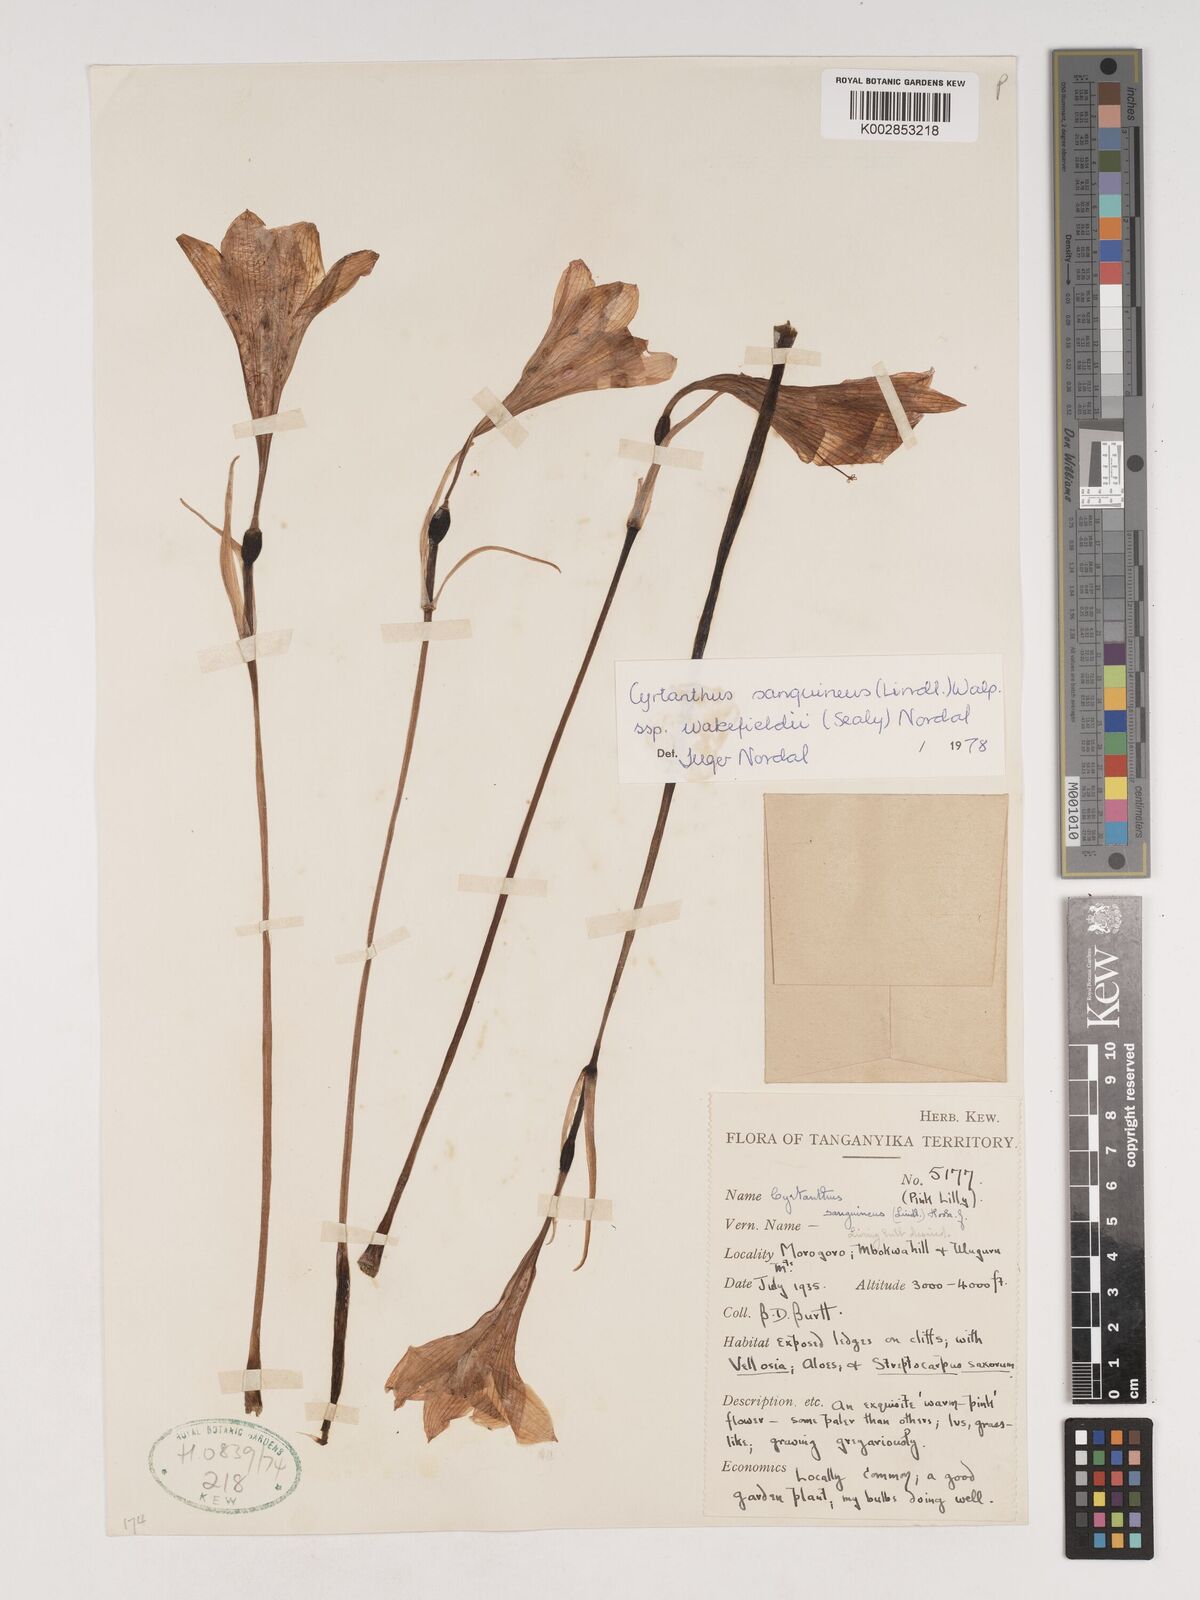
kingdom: Plantae
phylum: Tracheophyta
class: Liliopsida
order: Asparagales
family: Amaryllidaceae
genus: Cyrtanthus
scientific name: Cyrtanthus sanguineus
